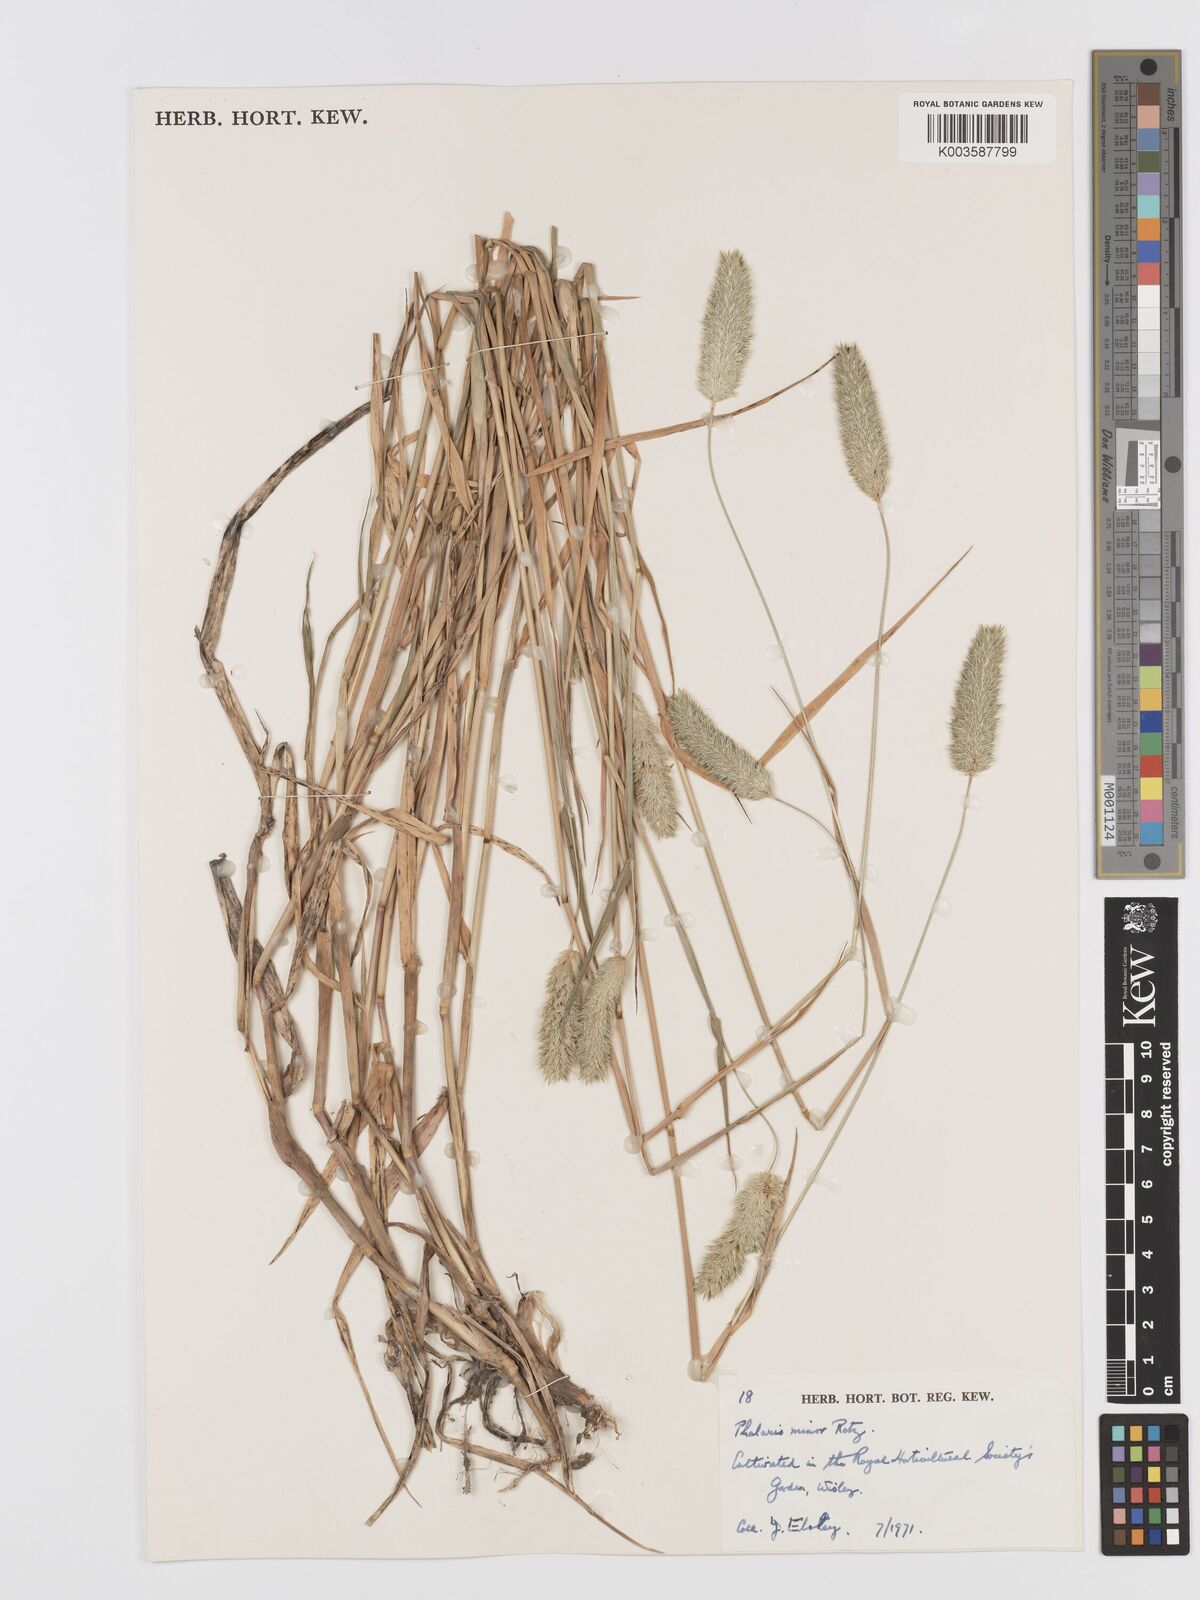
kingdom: Plantae
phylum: Tracheophyta
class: Liliopsida
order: Poales
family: Poaceae
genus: Phalaris
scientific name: Phalaris minor
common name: Littleseed canarygrass
